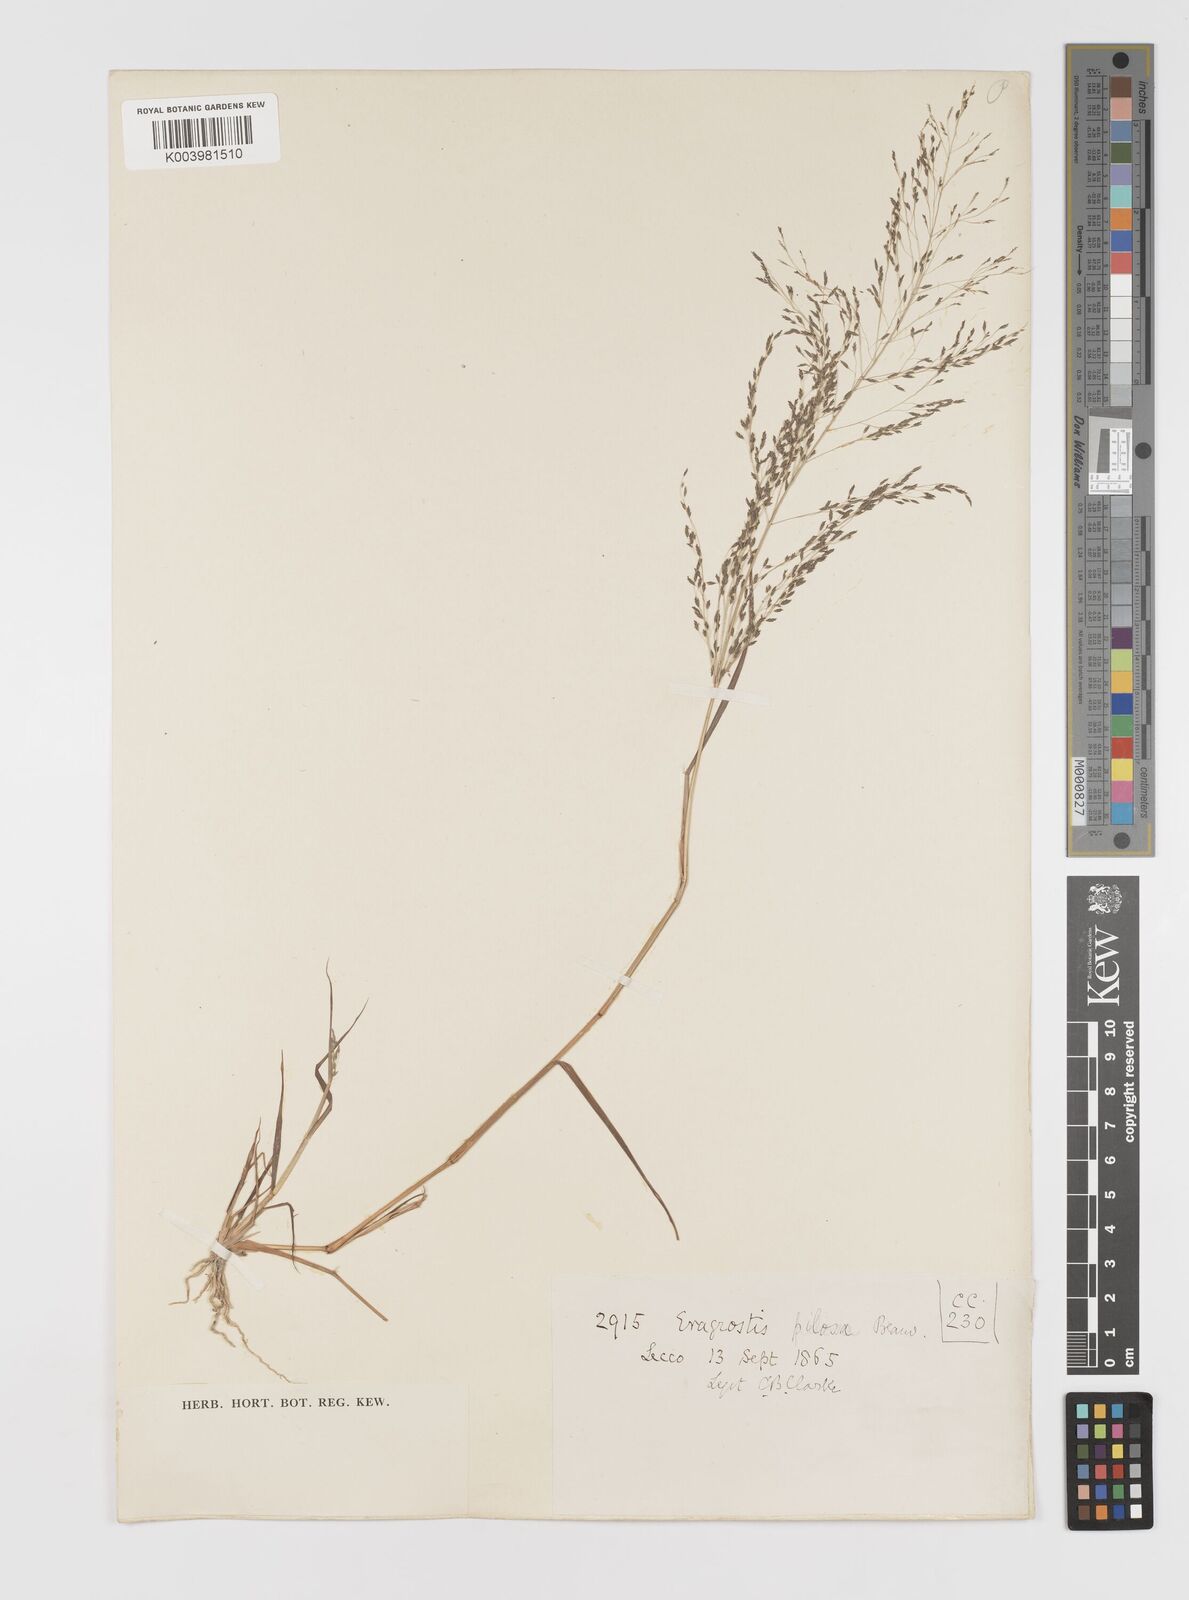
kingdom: Plantae
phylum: Tracheophyta
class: Liliopsida
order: Poales
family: Poaceae
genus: Eragrostis
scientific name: Eragrostis pilosa
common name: Indian lovegrass
